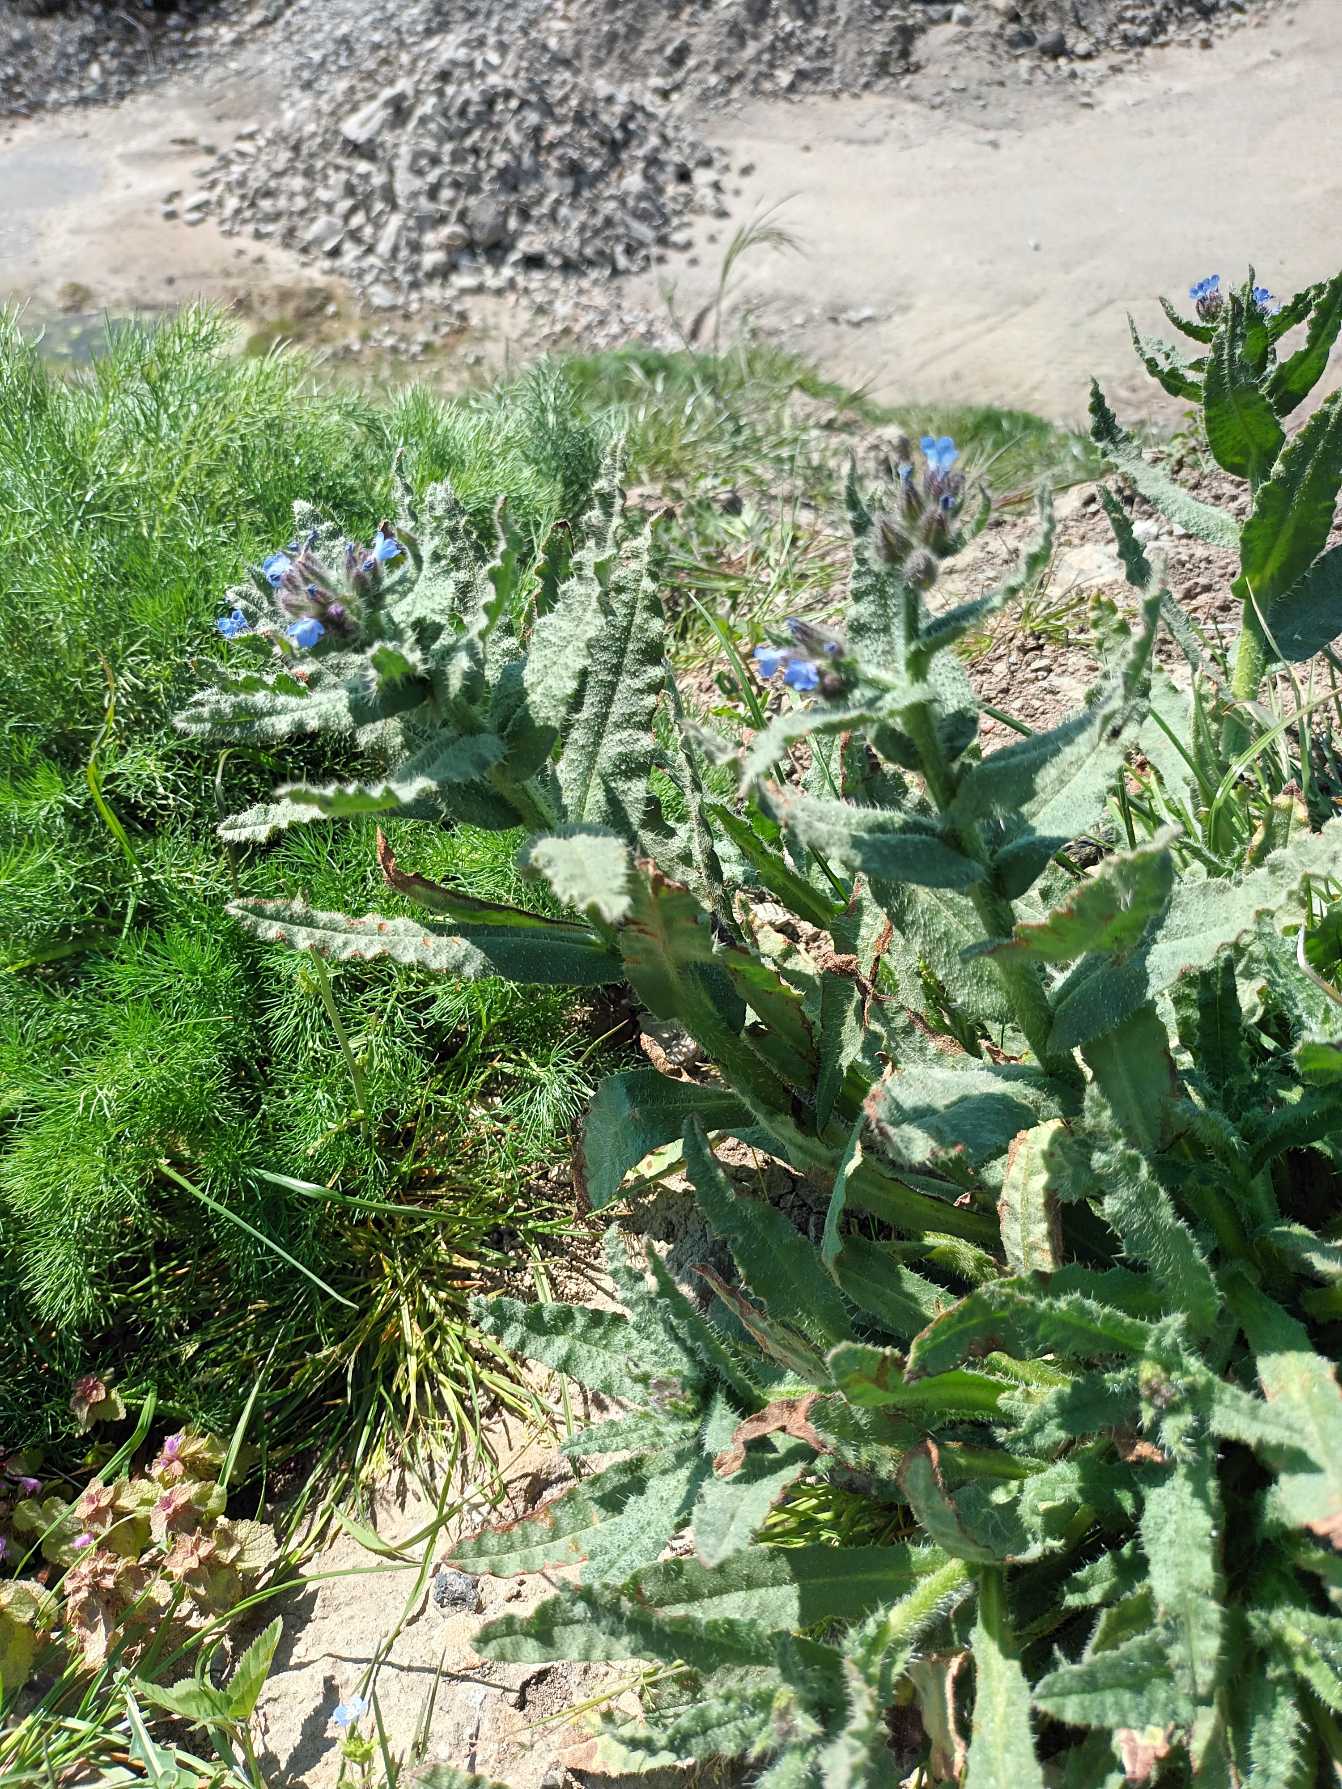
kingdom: Plantae
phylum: Tracheophyta
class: Magnoliopsida
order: Boraginales
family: Boraginaceae
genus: Lycopsis
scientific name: Lycopsis arvensis
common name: Krumhals
